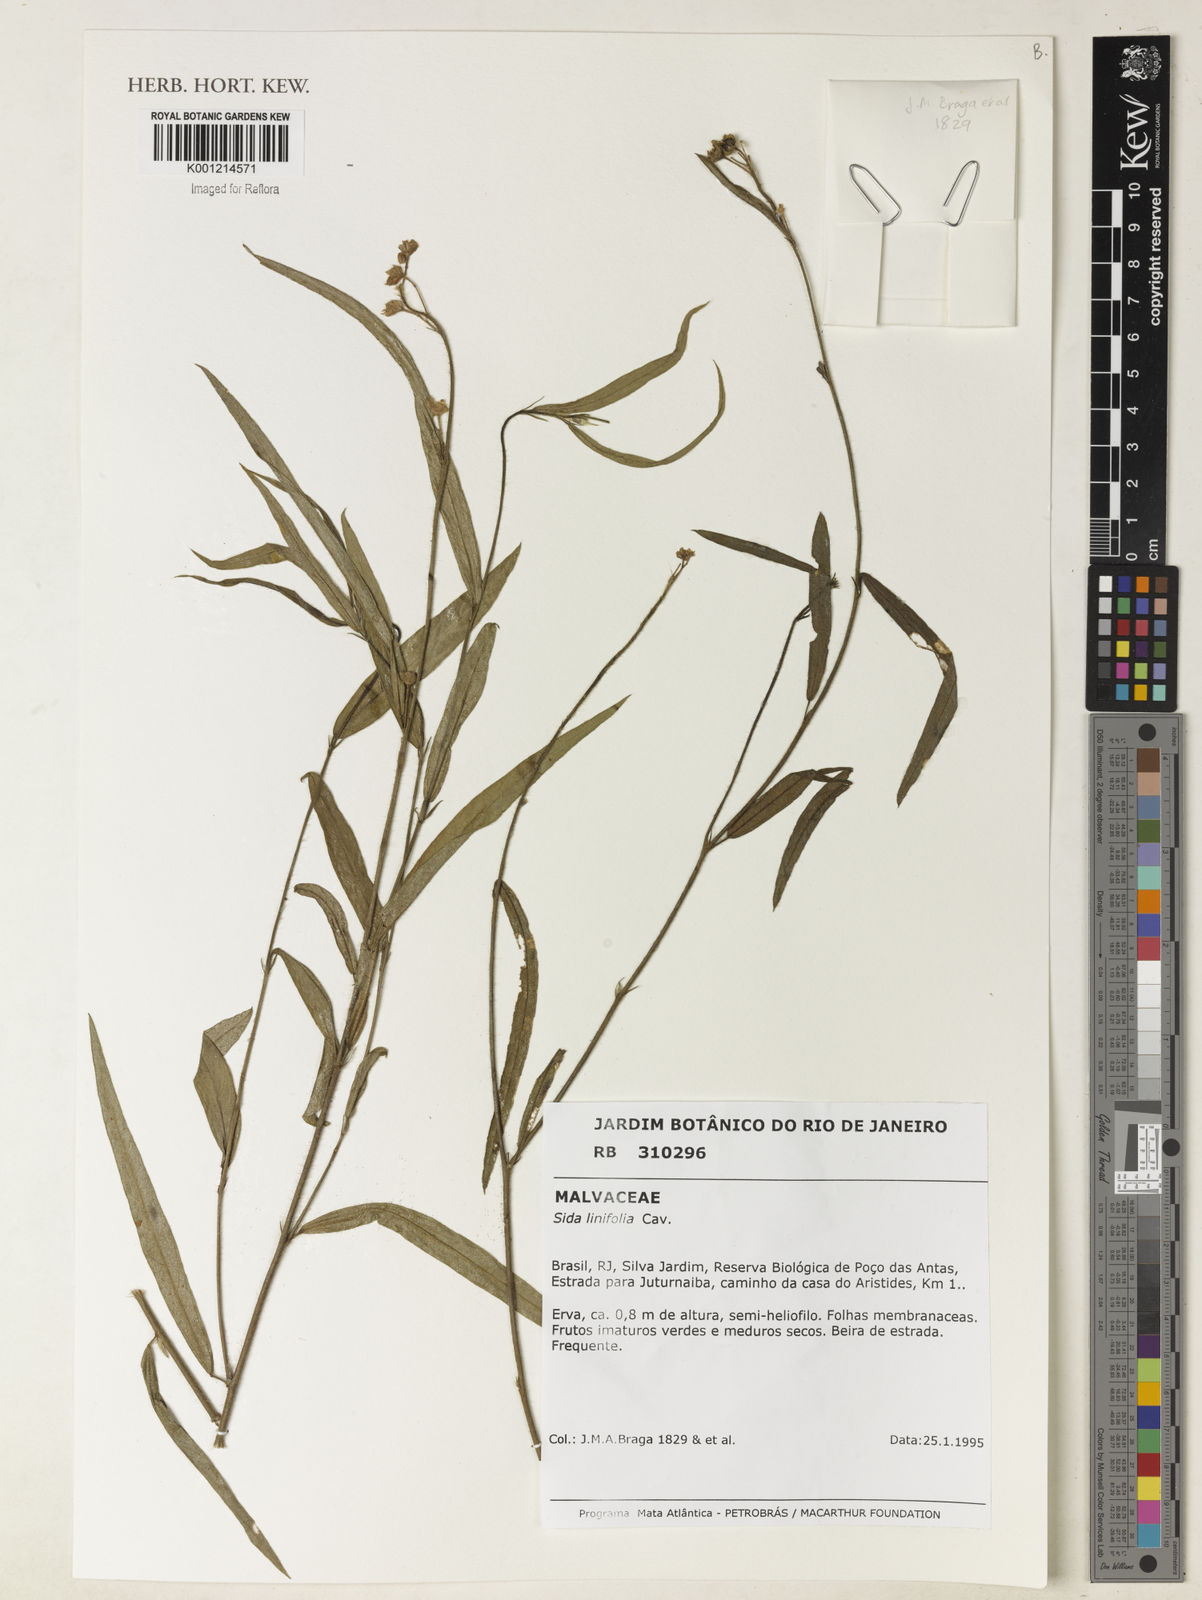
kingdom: Plantae
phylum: Tracheophyta
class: Magnoliopsida
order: Malvales
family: Malvaceae
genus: Sida
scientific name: Sida linifolia
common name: Flaxleaf fanpetals
